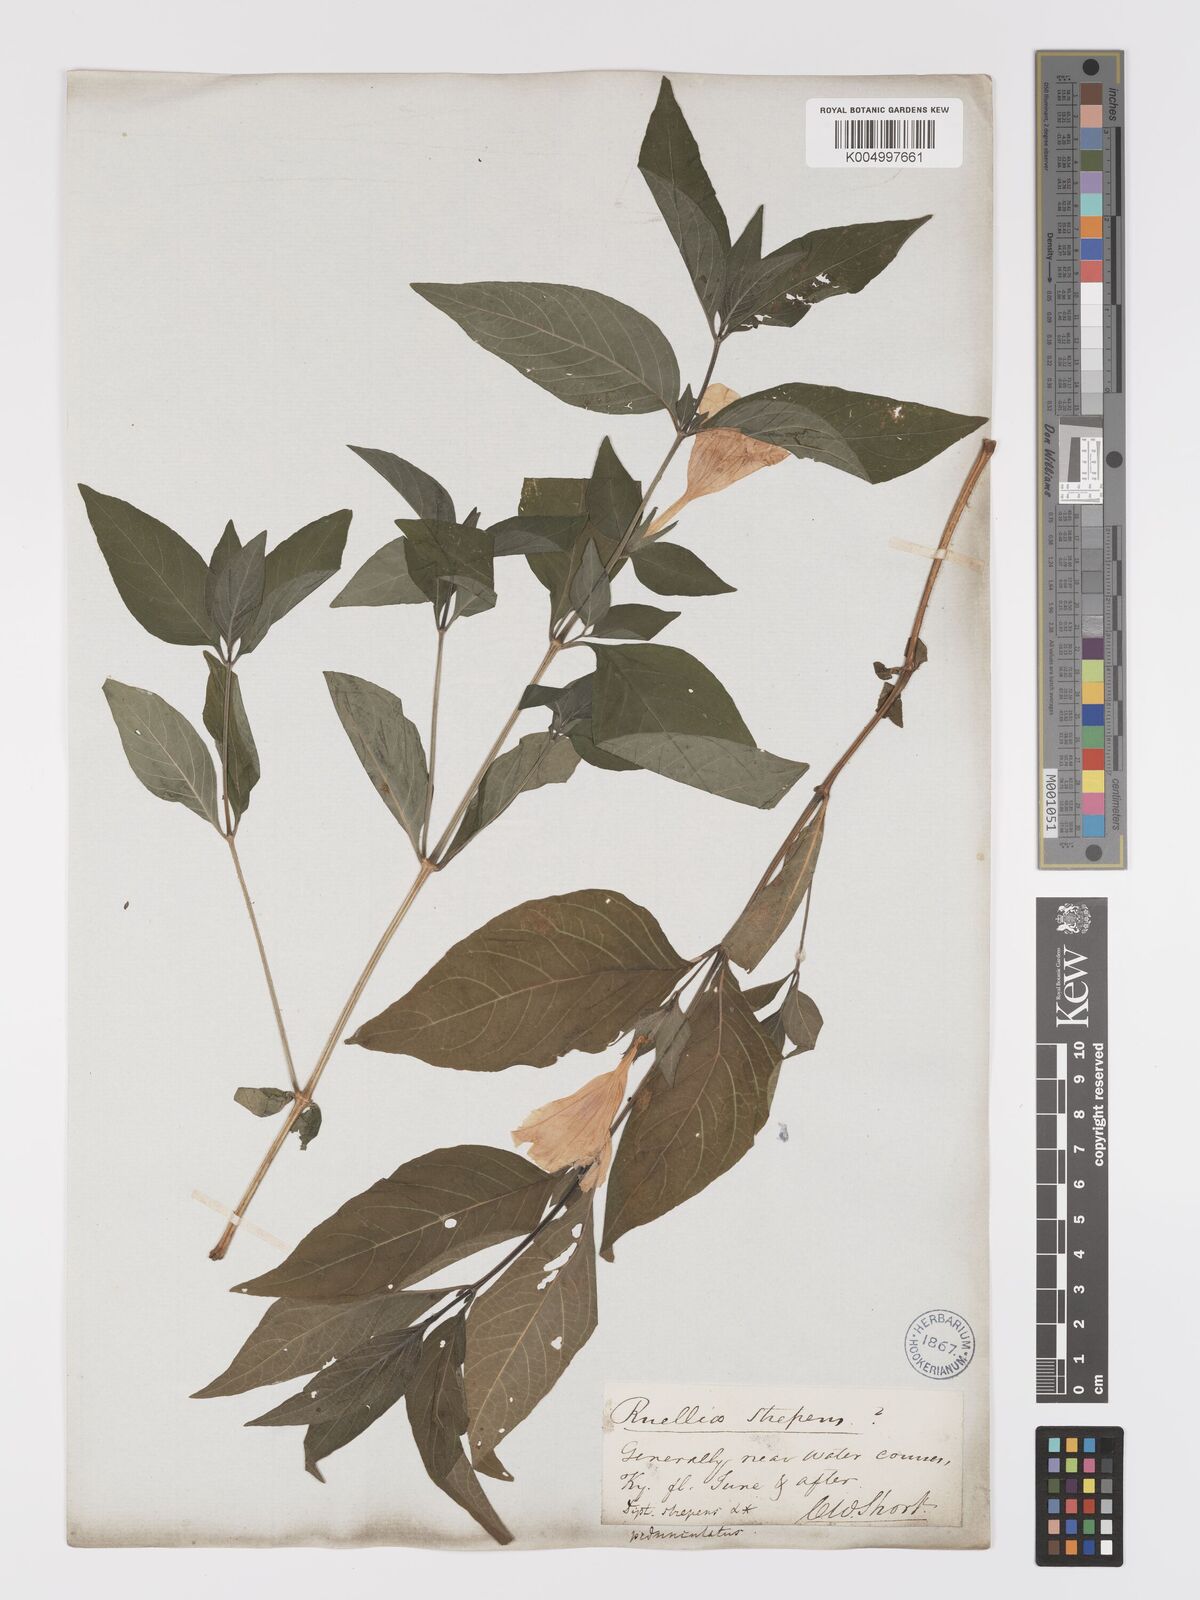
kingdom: Plantae
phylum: Tracheophyta
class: Magnoliopsida
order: Lamiales
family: Acanthaceae
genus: Ruellia
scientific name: Ruellia strepens
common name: Limestone wild petunia
